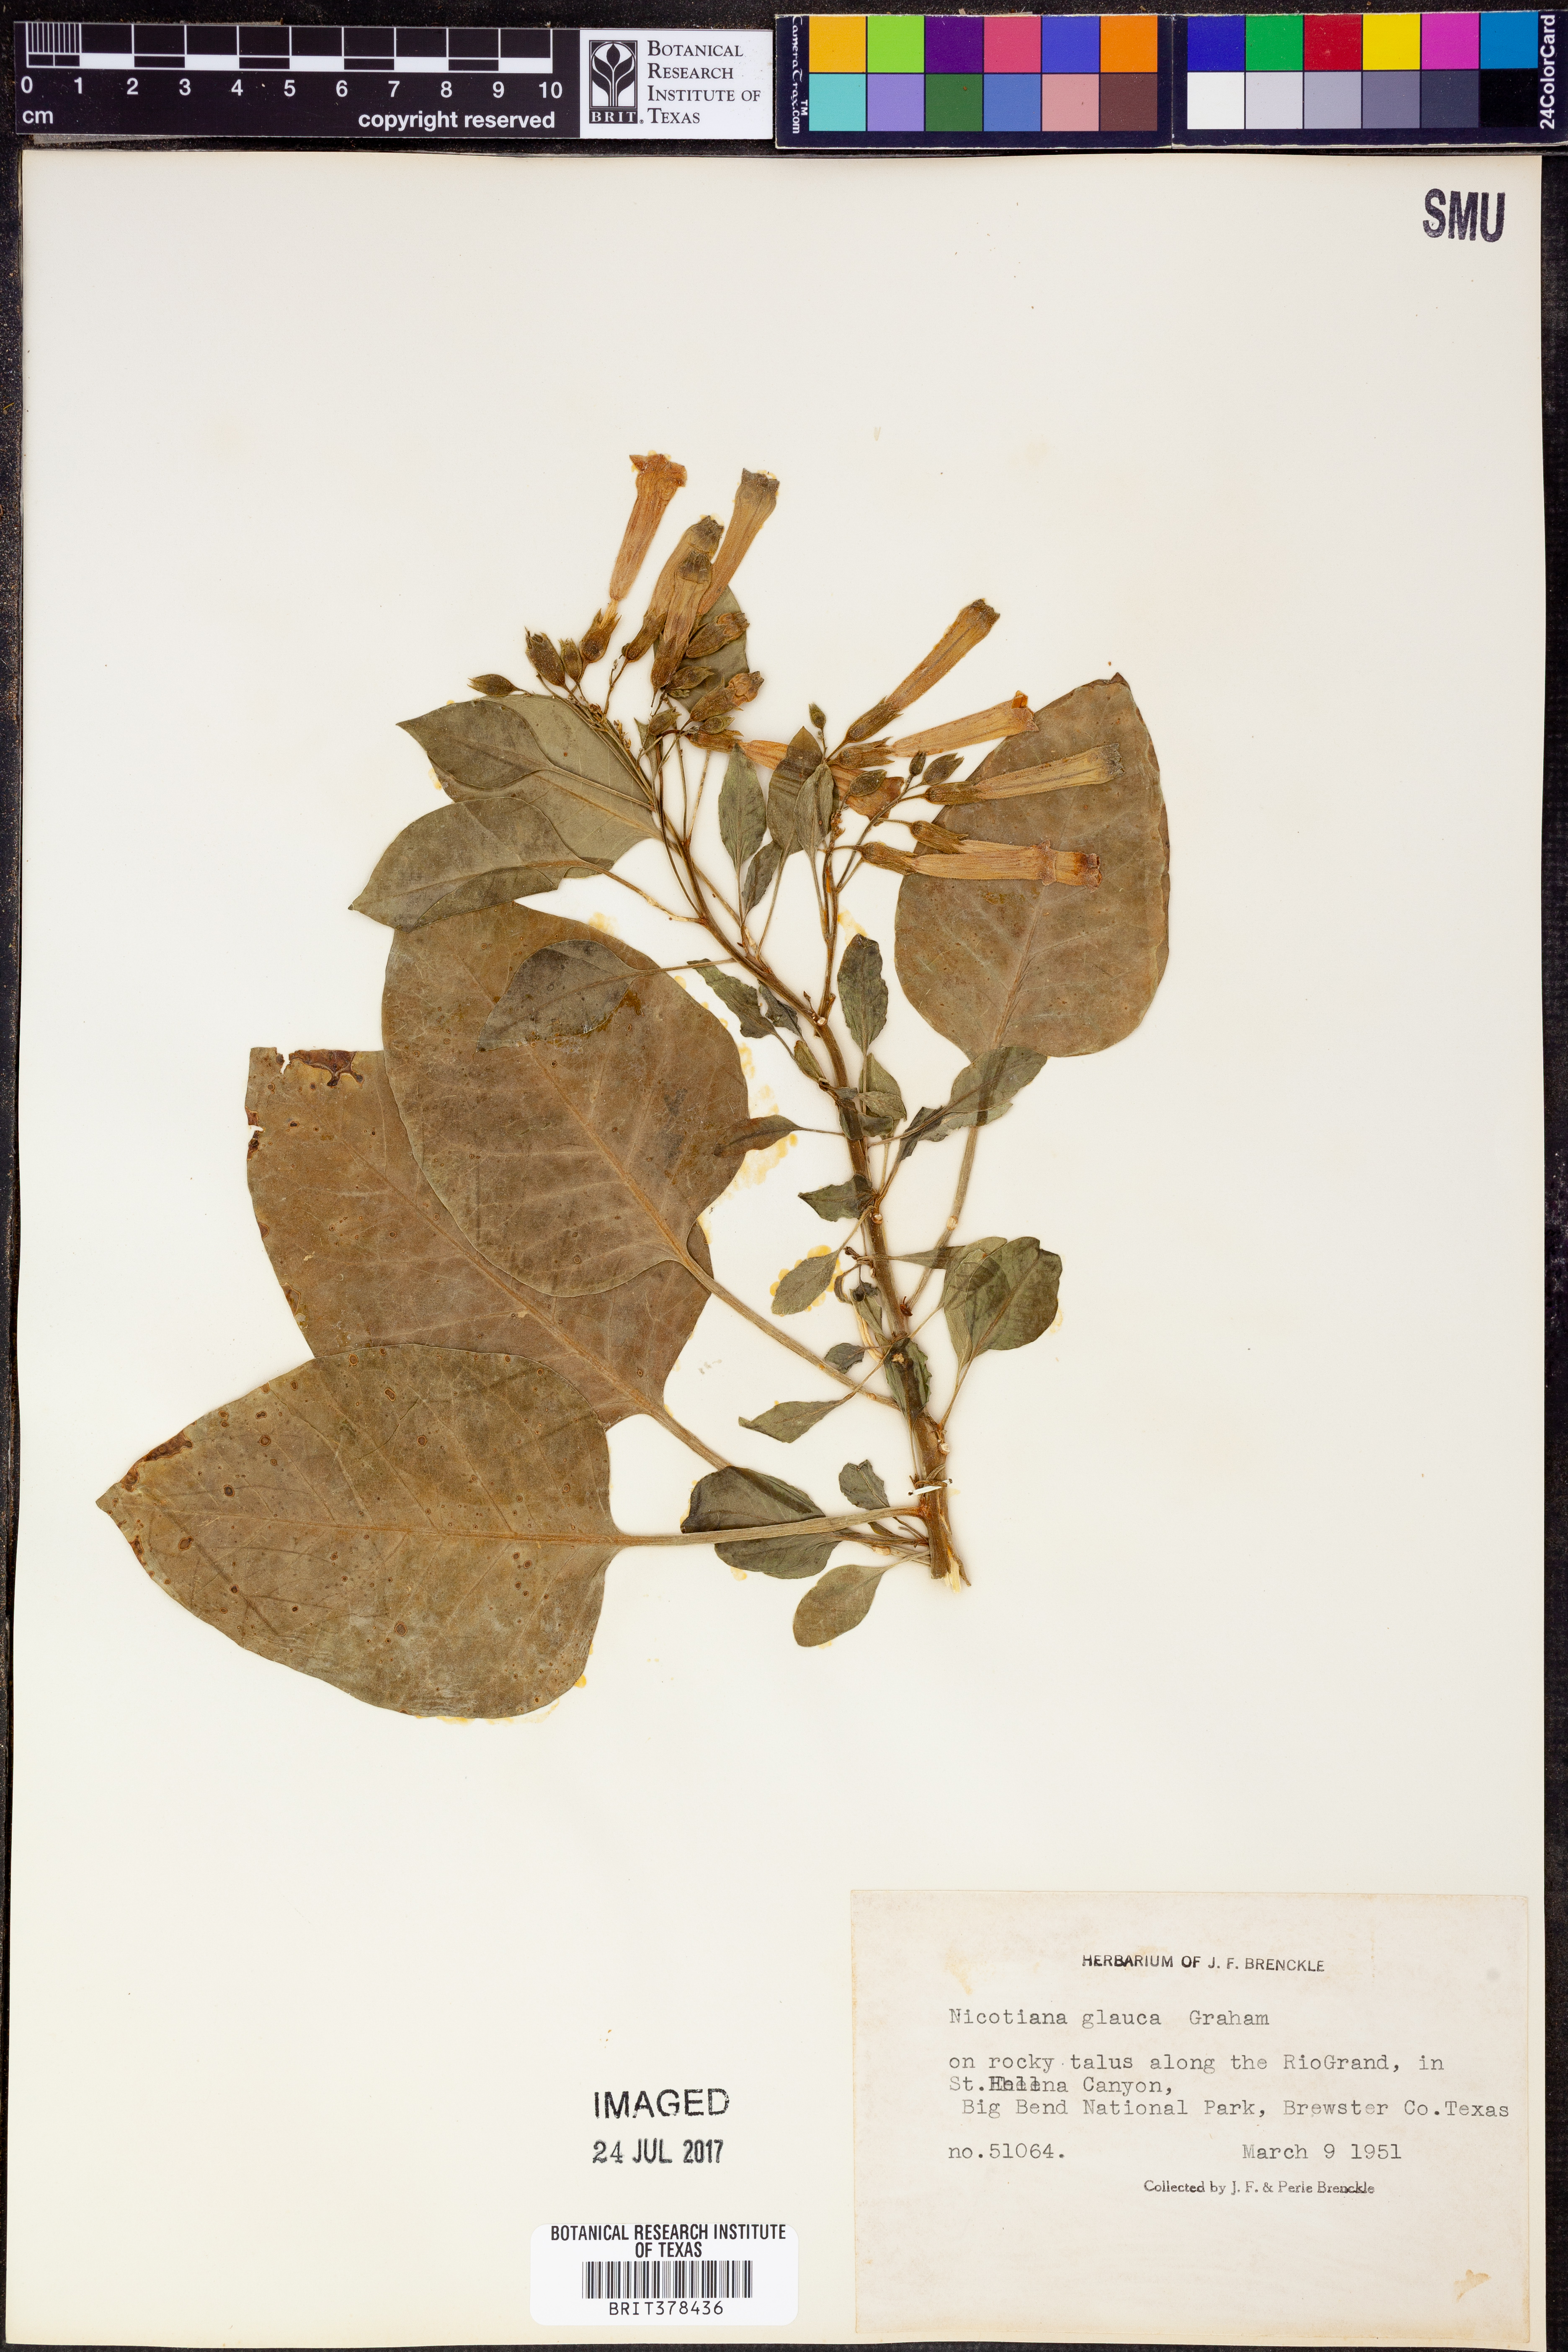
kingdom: Plantae
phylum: Tracheophyta
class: Magnoliopsida
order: Solanales
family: Solanaceae
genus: Nicotiana
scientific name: Nicotiana glauca
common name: Tree tobacco
